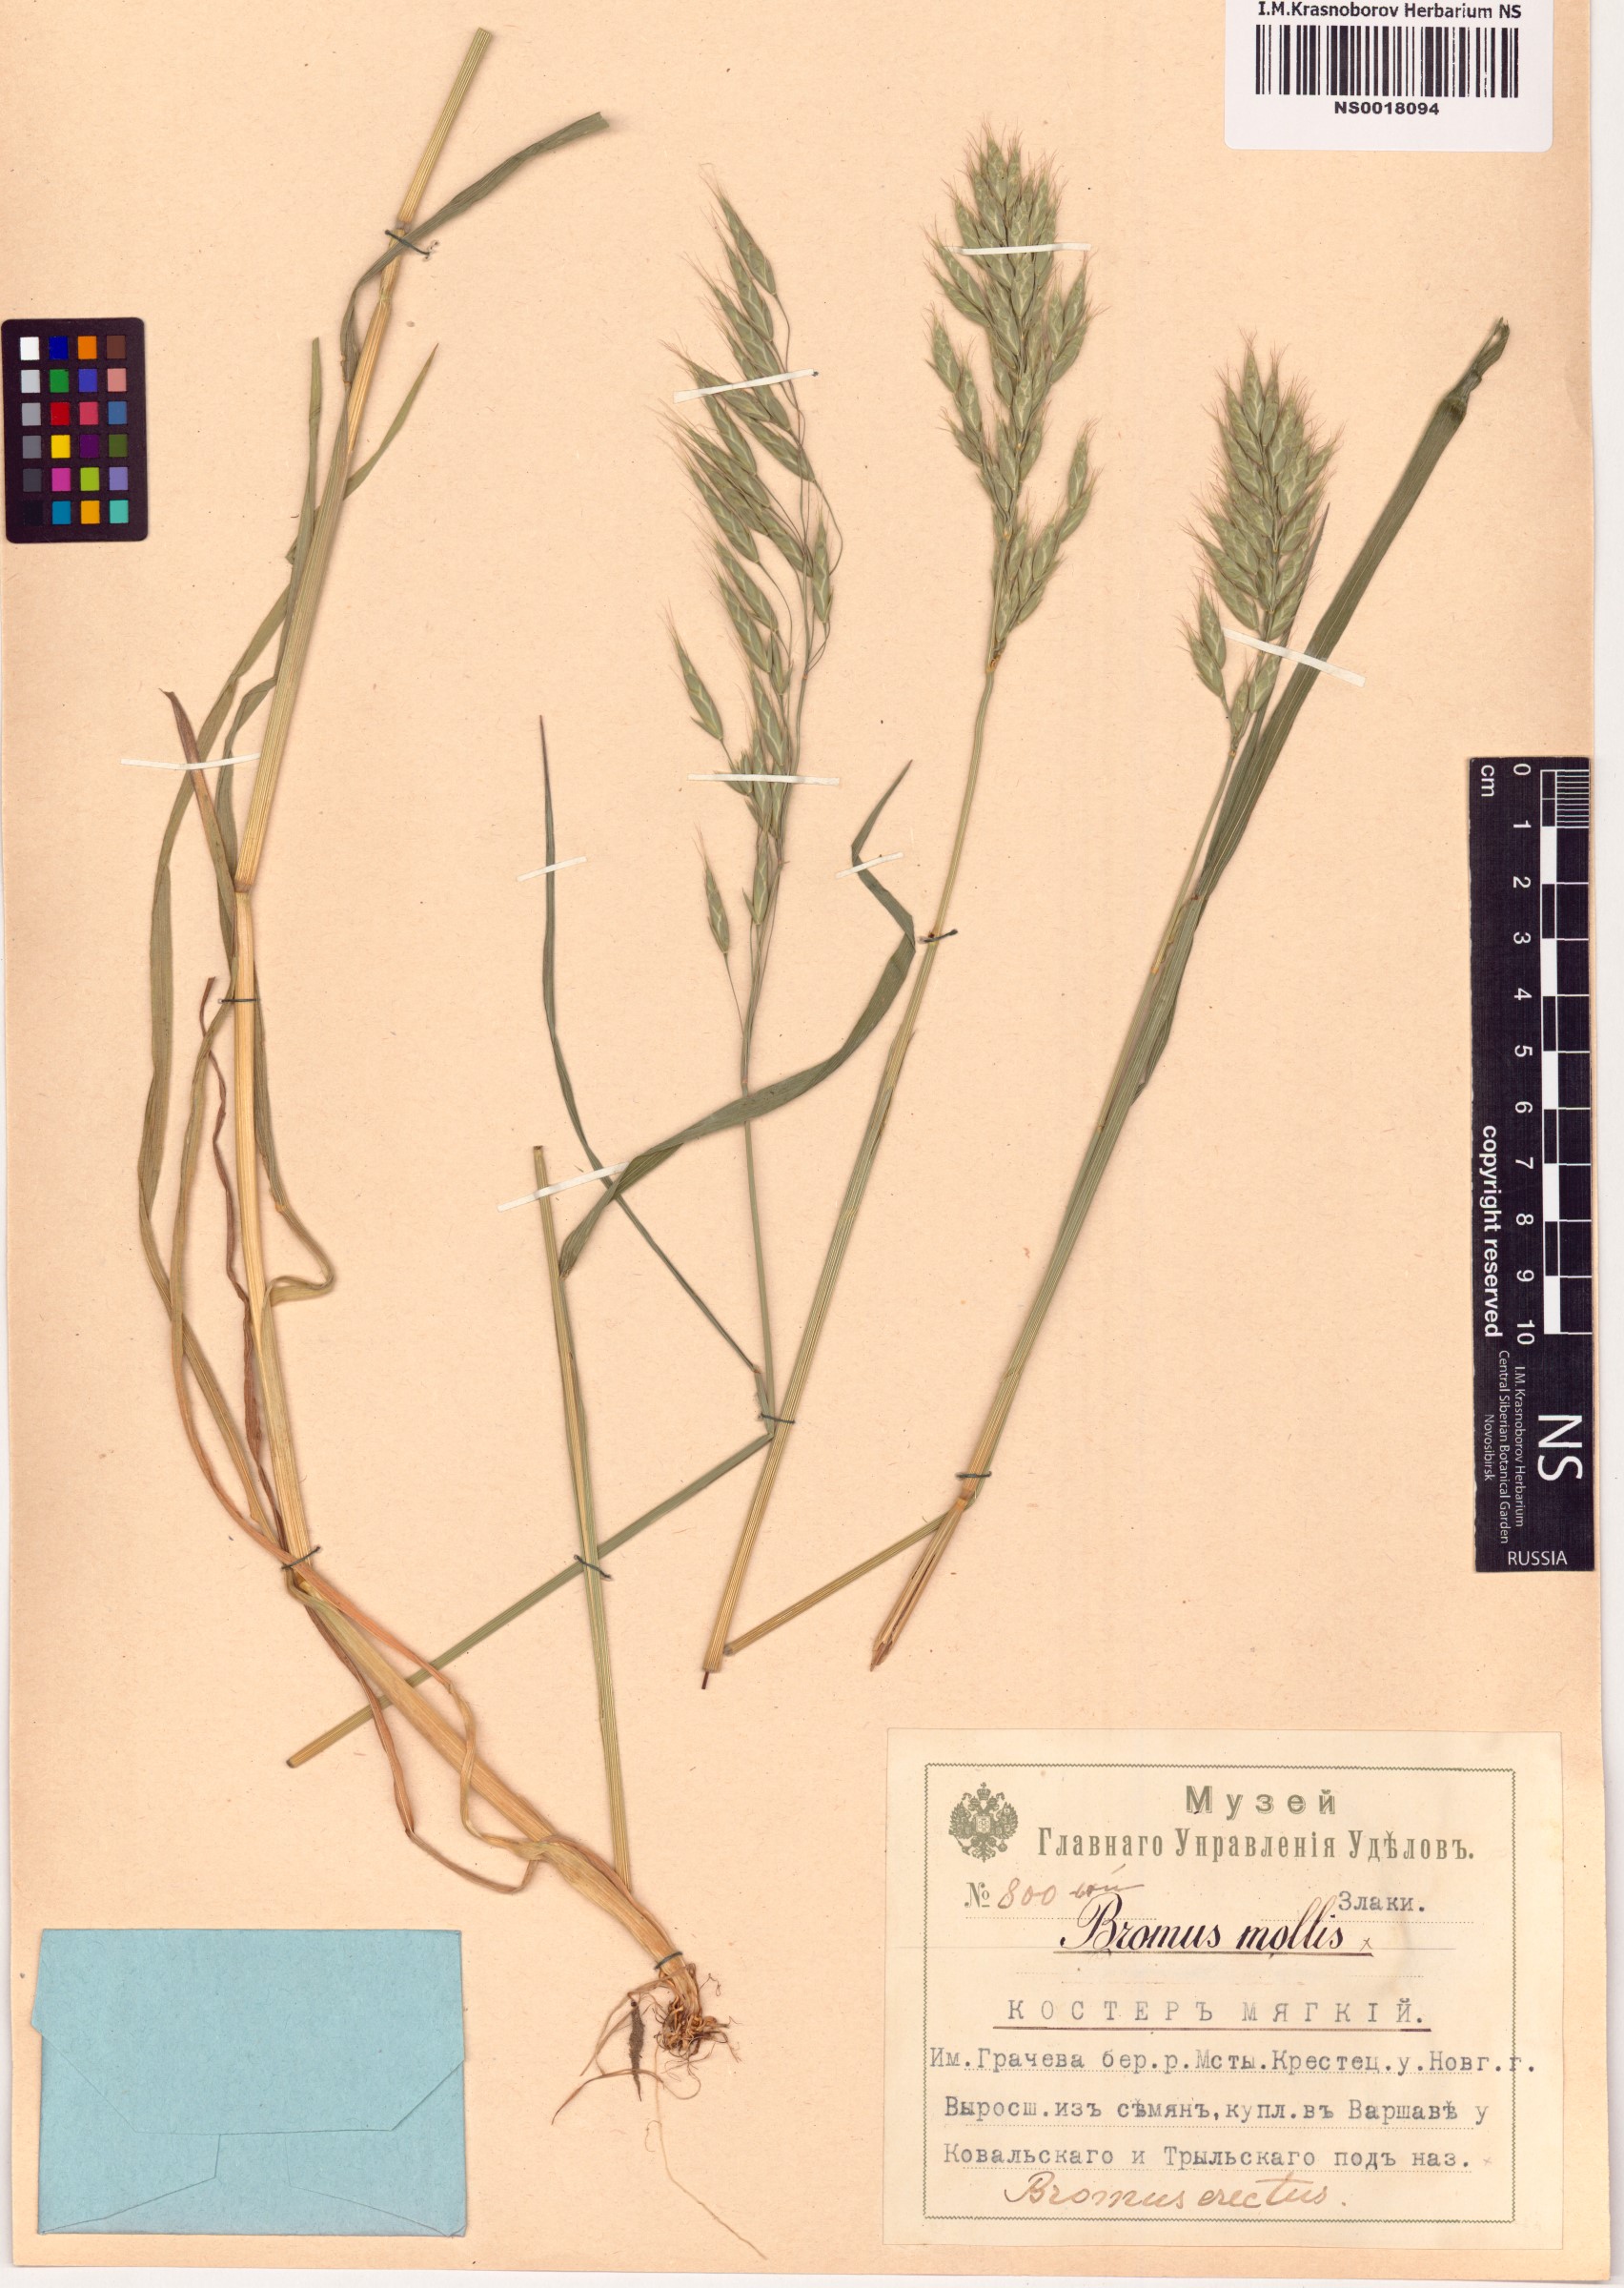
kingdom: Plantae
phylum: Tracheophyta
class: Liliopsida
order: Poales
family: Poaceae
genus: Bromus
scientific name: Bromus hordeaceus
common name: Soft brome
